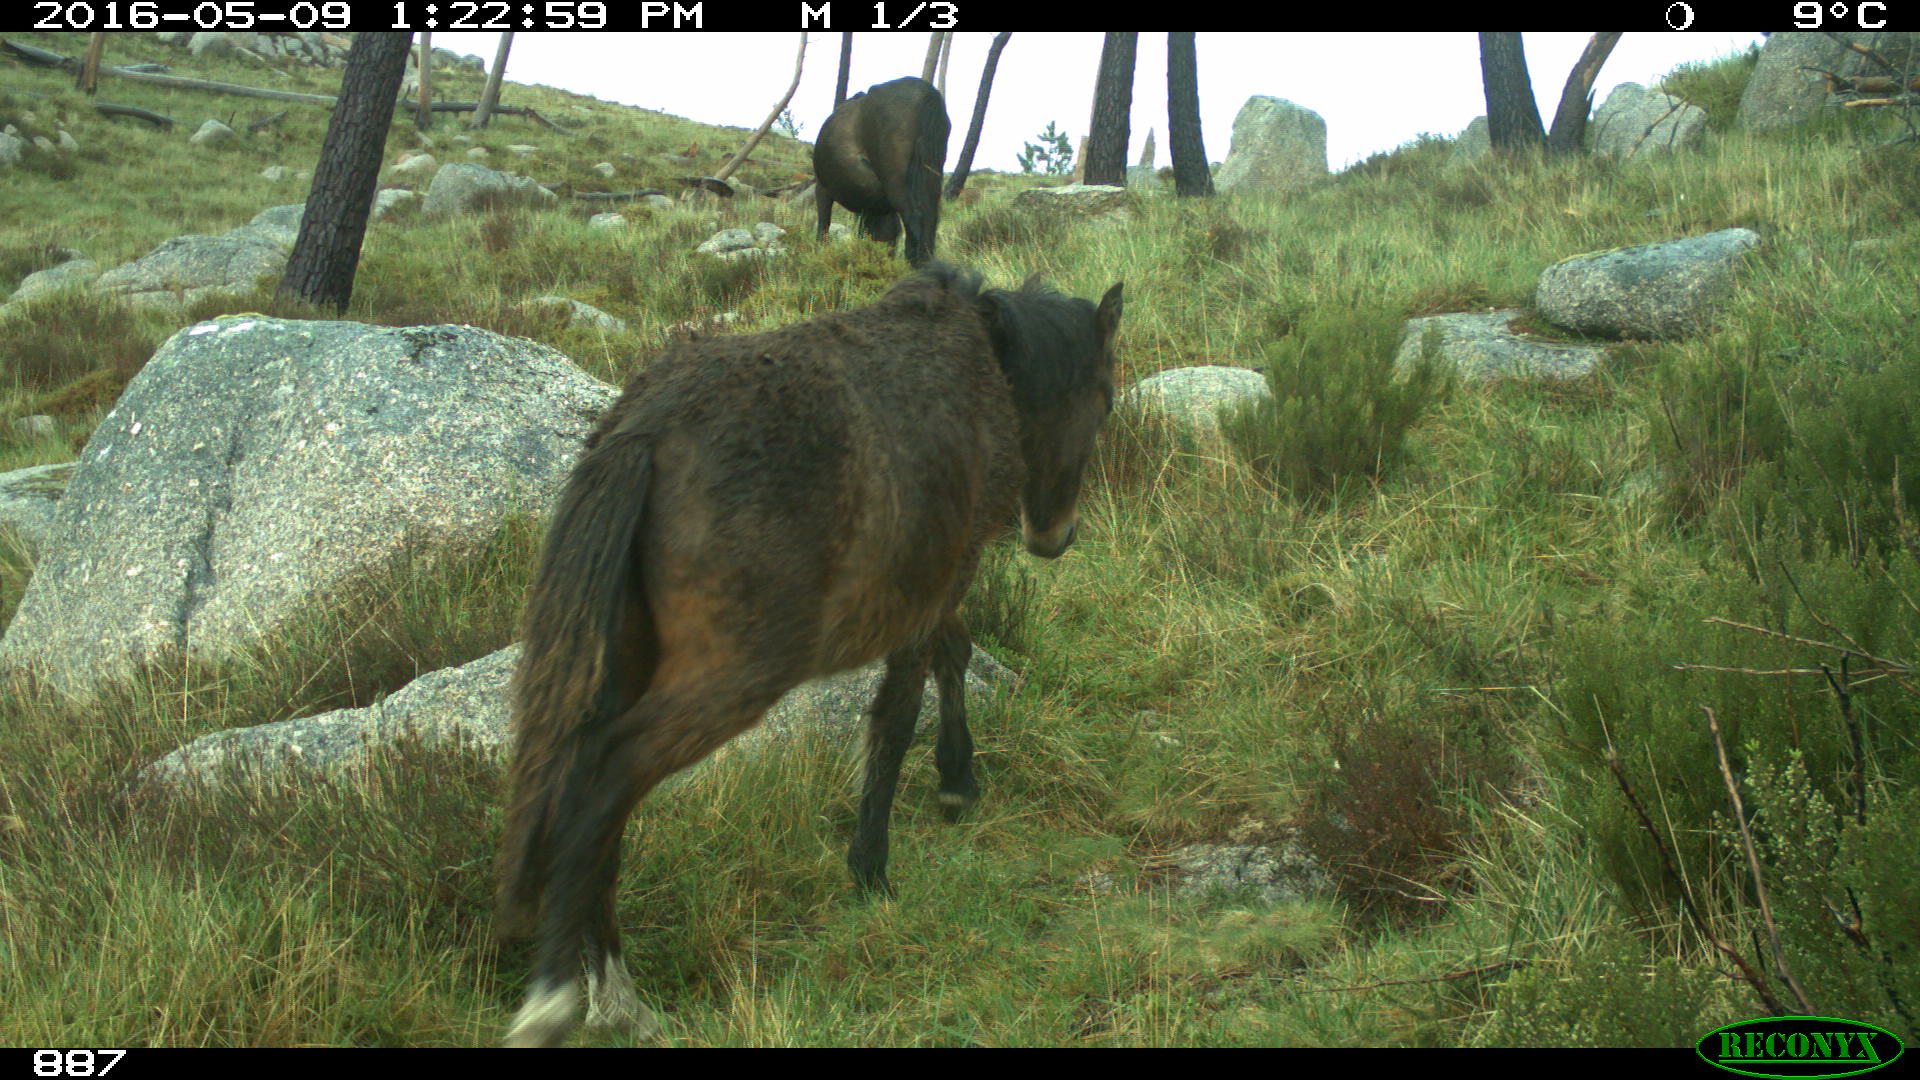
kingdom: Animalia
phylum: Chordata
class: Mammalia
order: Perissodactyla
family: Equidae
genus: Equus
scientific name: Equus caballus
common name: Horse
